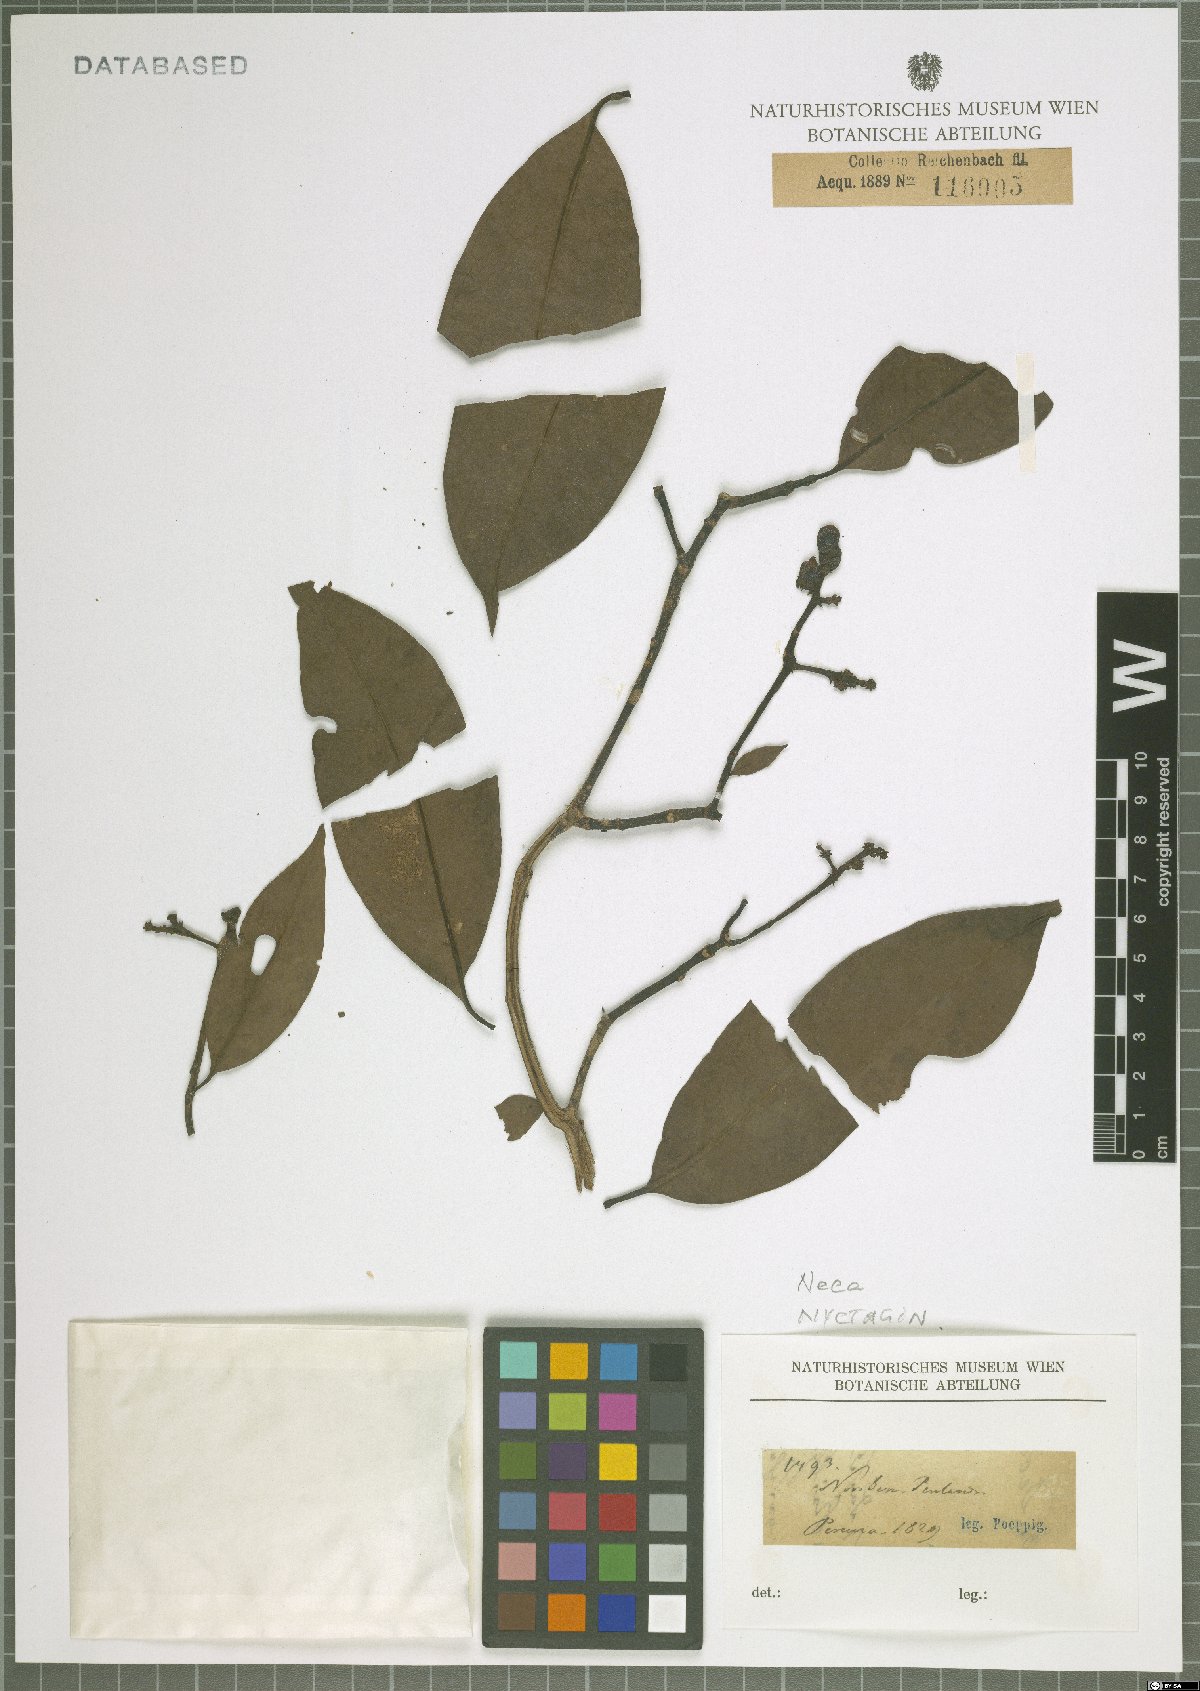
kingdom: Plantae
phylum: Tracheophyta
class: Magnoliopsida
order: Caryophyllales
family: Nyctaginaceae
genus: Neea
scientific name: Neea
